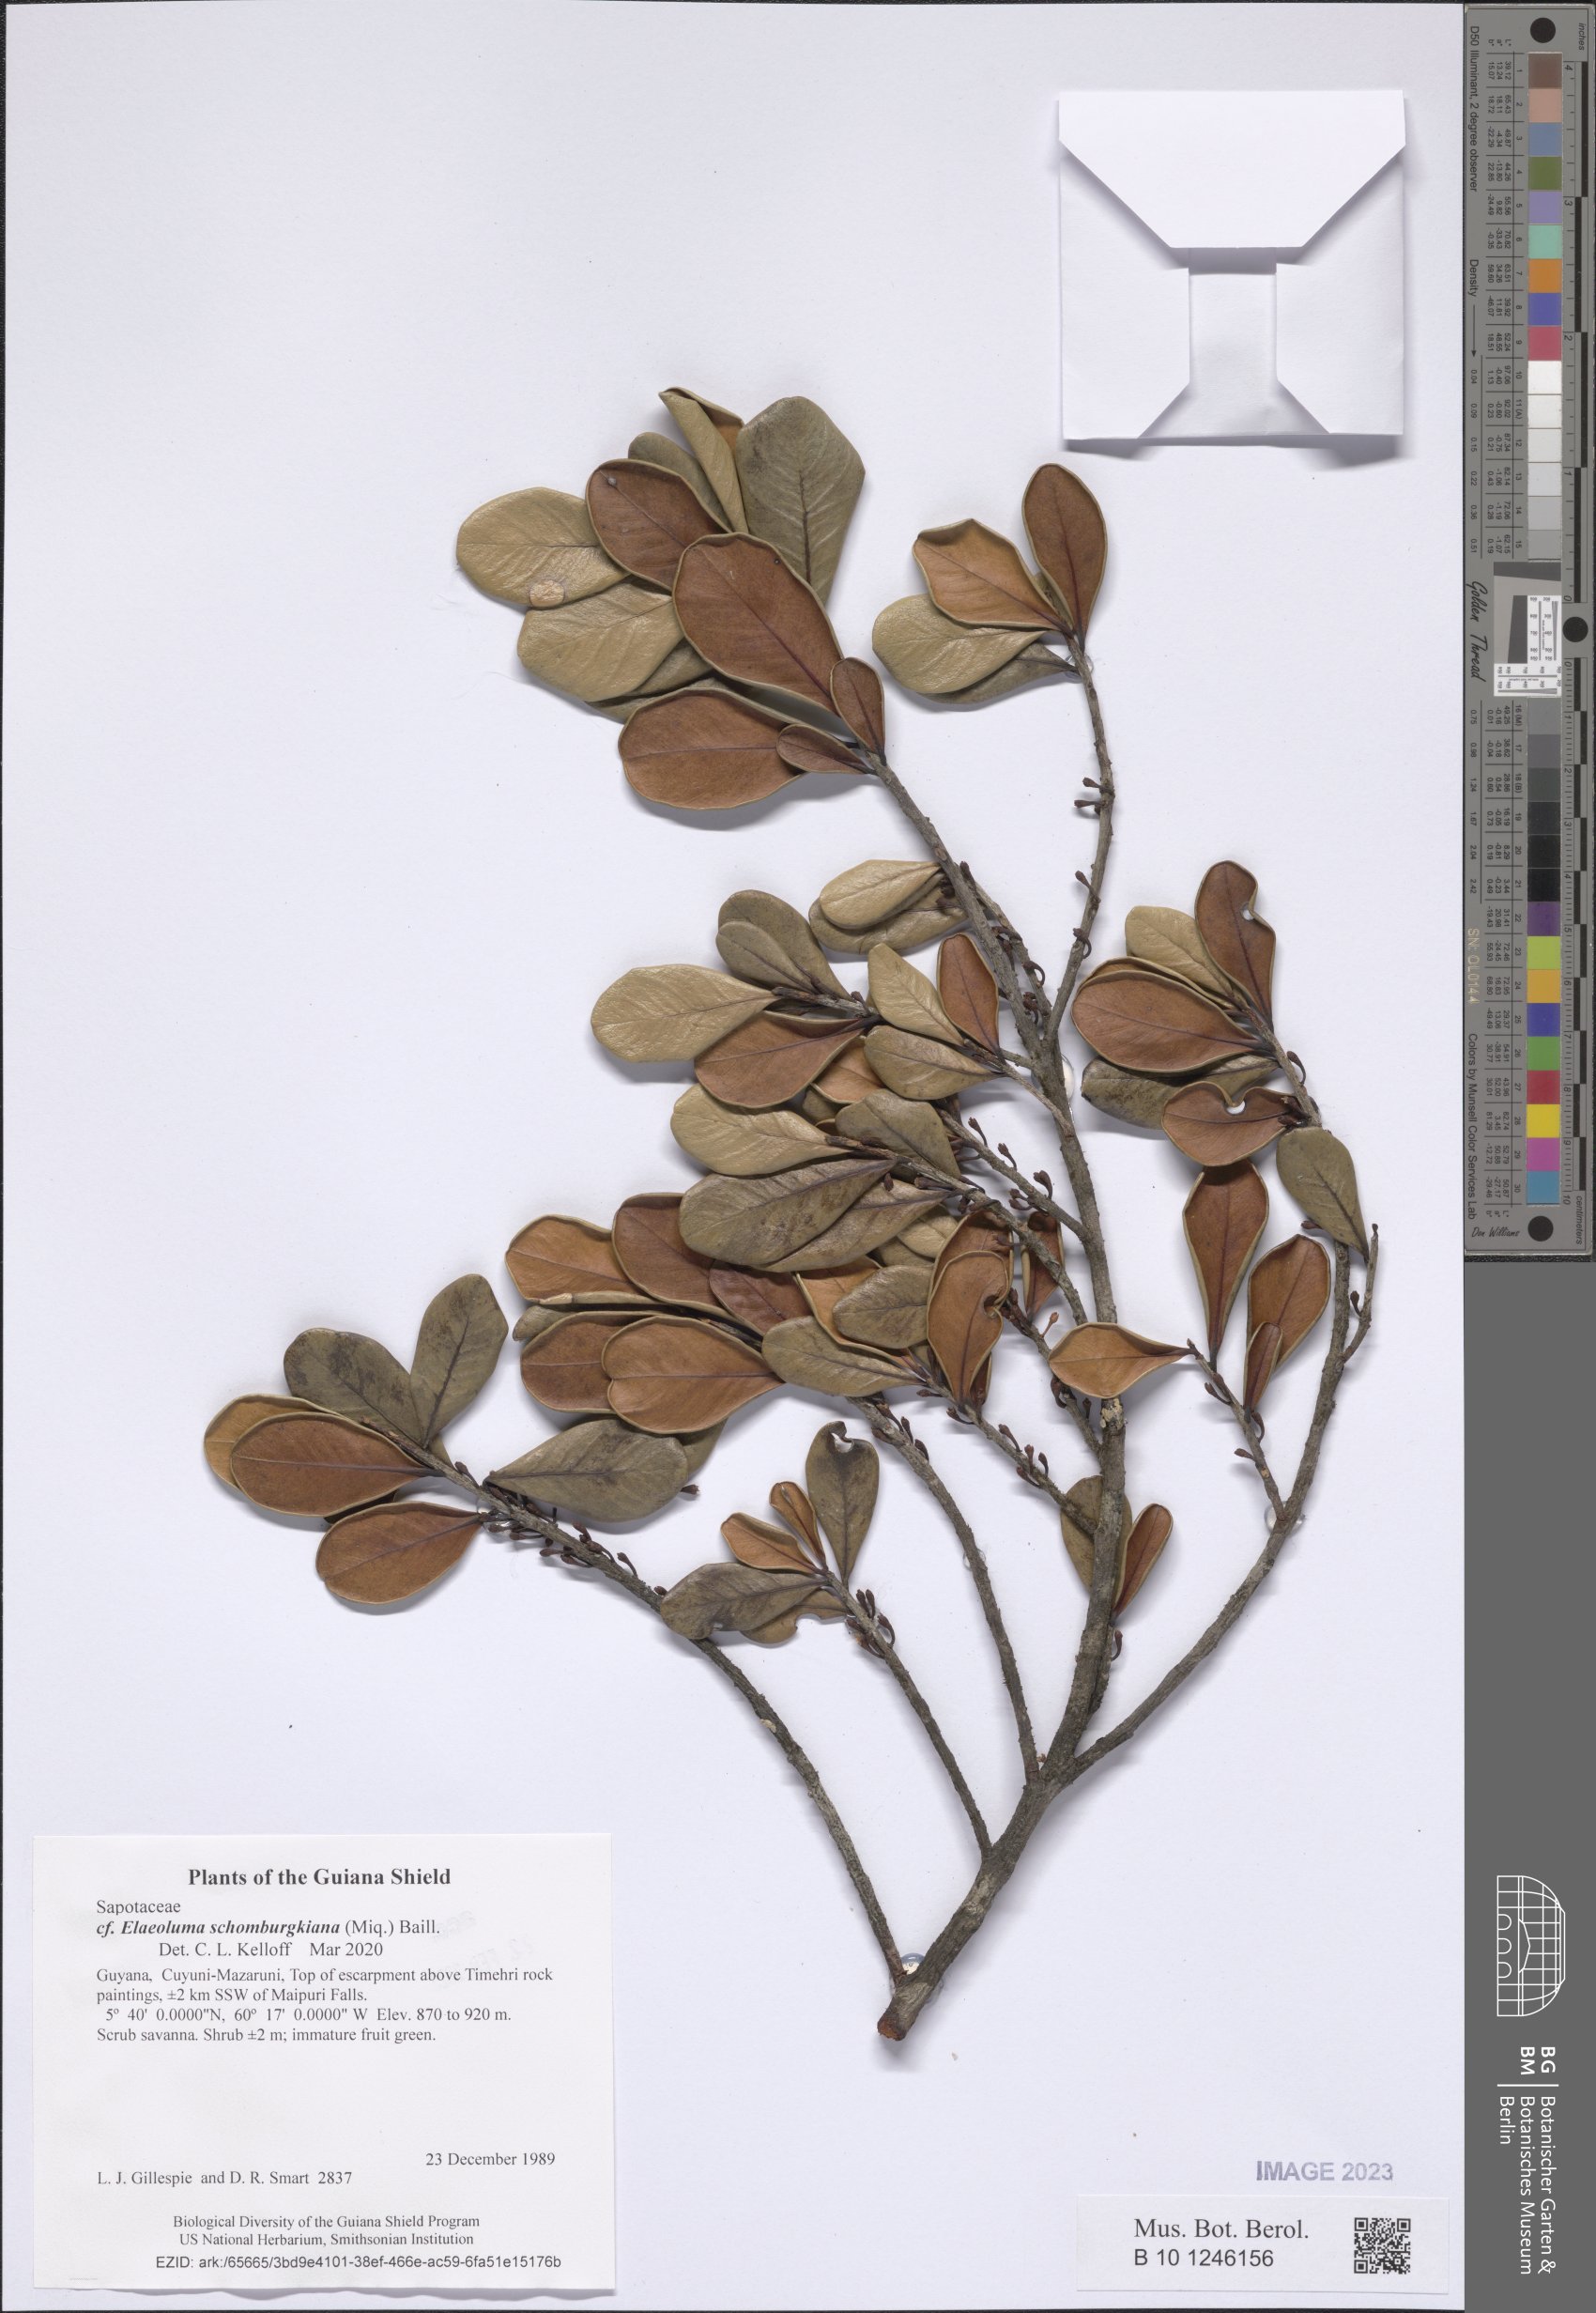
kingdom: Plantae
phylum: Tracheophyta
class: Magnoliopsida
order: Ericales
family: Sapotaceae
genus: Elaeoluma
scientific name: Elaeoluma schomburgkiana
